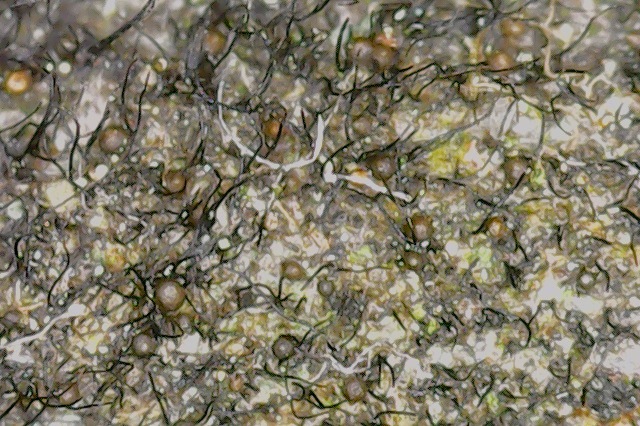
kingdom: Fungi
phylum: Ascomycota
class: Dothideomycetes
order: Pleosporales
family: Massarinaceae
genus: Helminthosporium
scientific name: Helminthosporium velutinum
